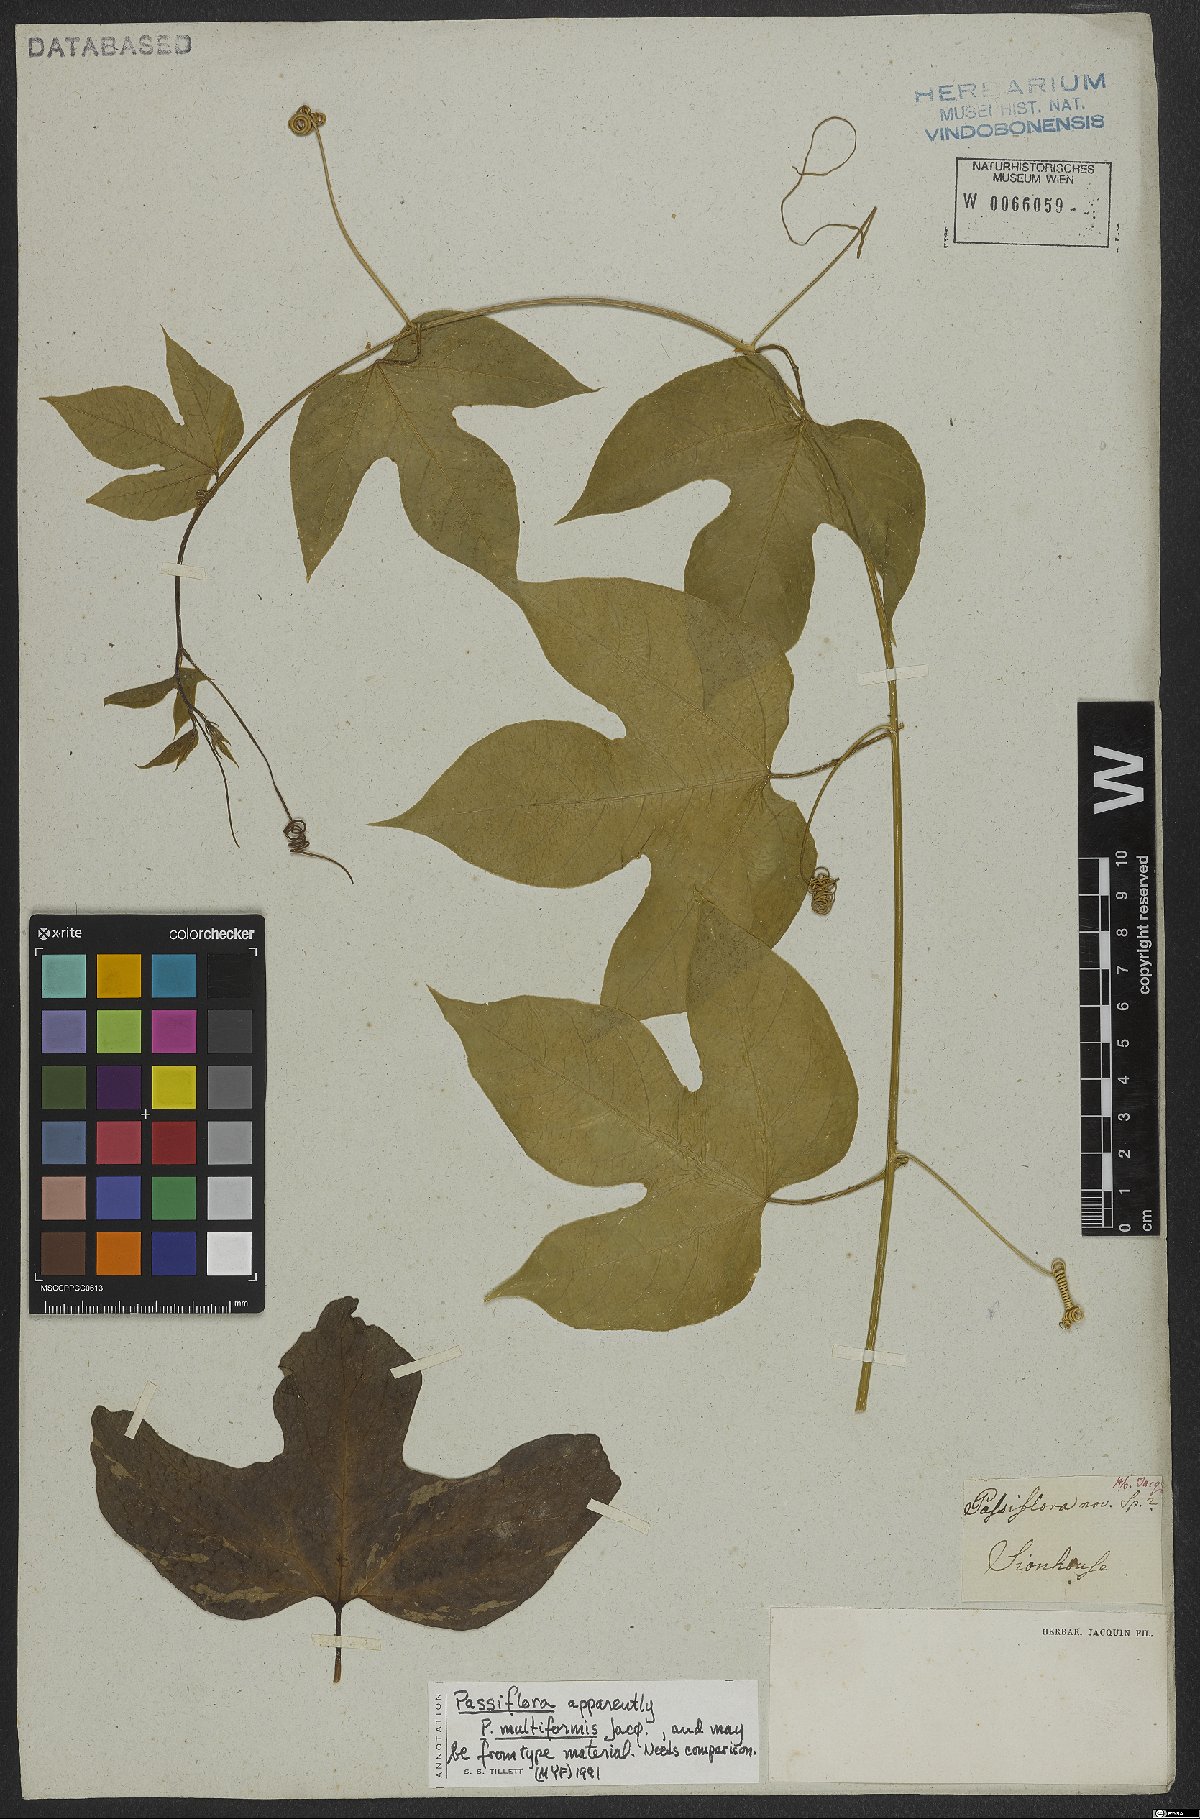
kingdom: Plantae
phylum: Tracheophyta
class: Magnoliopsida
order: Malpighiales
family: Passifloraceae
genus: Passiflora
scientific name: Passiflora multiformis
